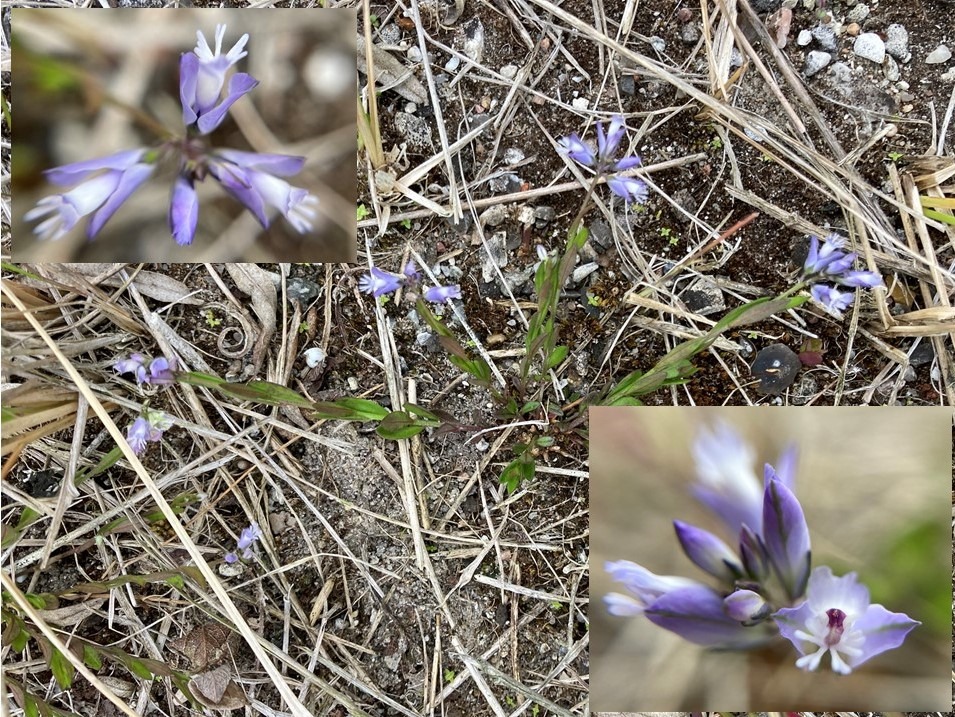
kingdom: Plantae
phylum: Tracheophyta
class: Magnoliopsida
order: Fabales
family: Polygalaceae
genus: Polygala
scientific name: Polygala vulgaris
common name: Almindelig mælkeurt
